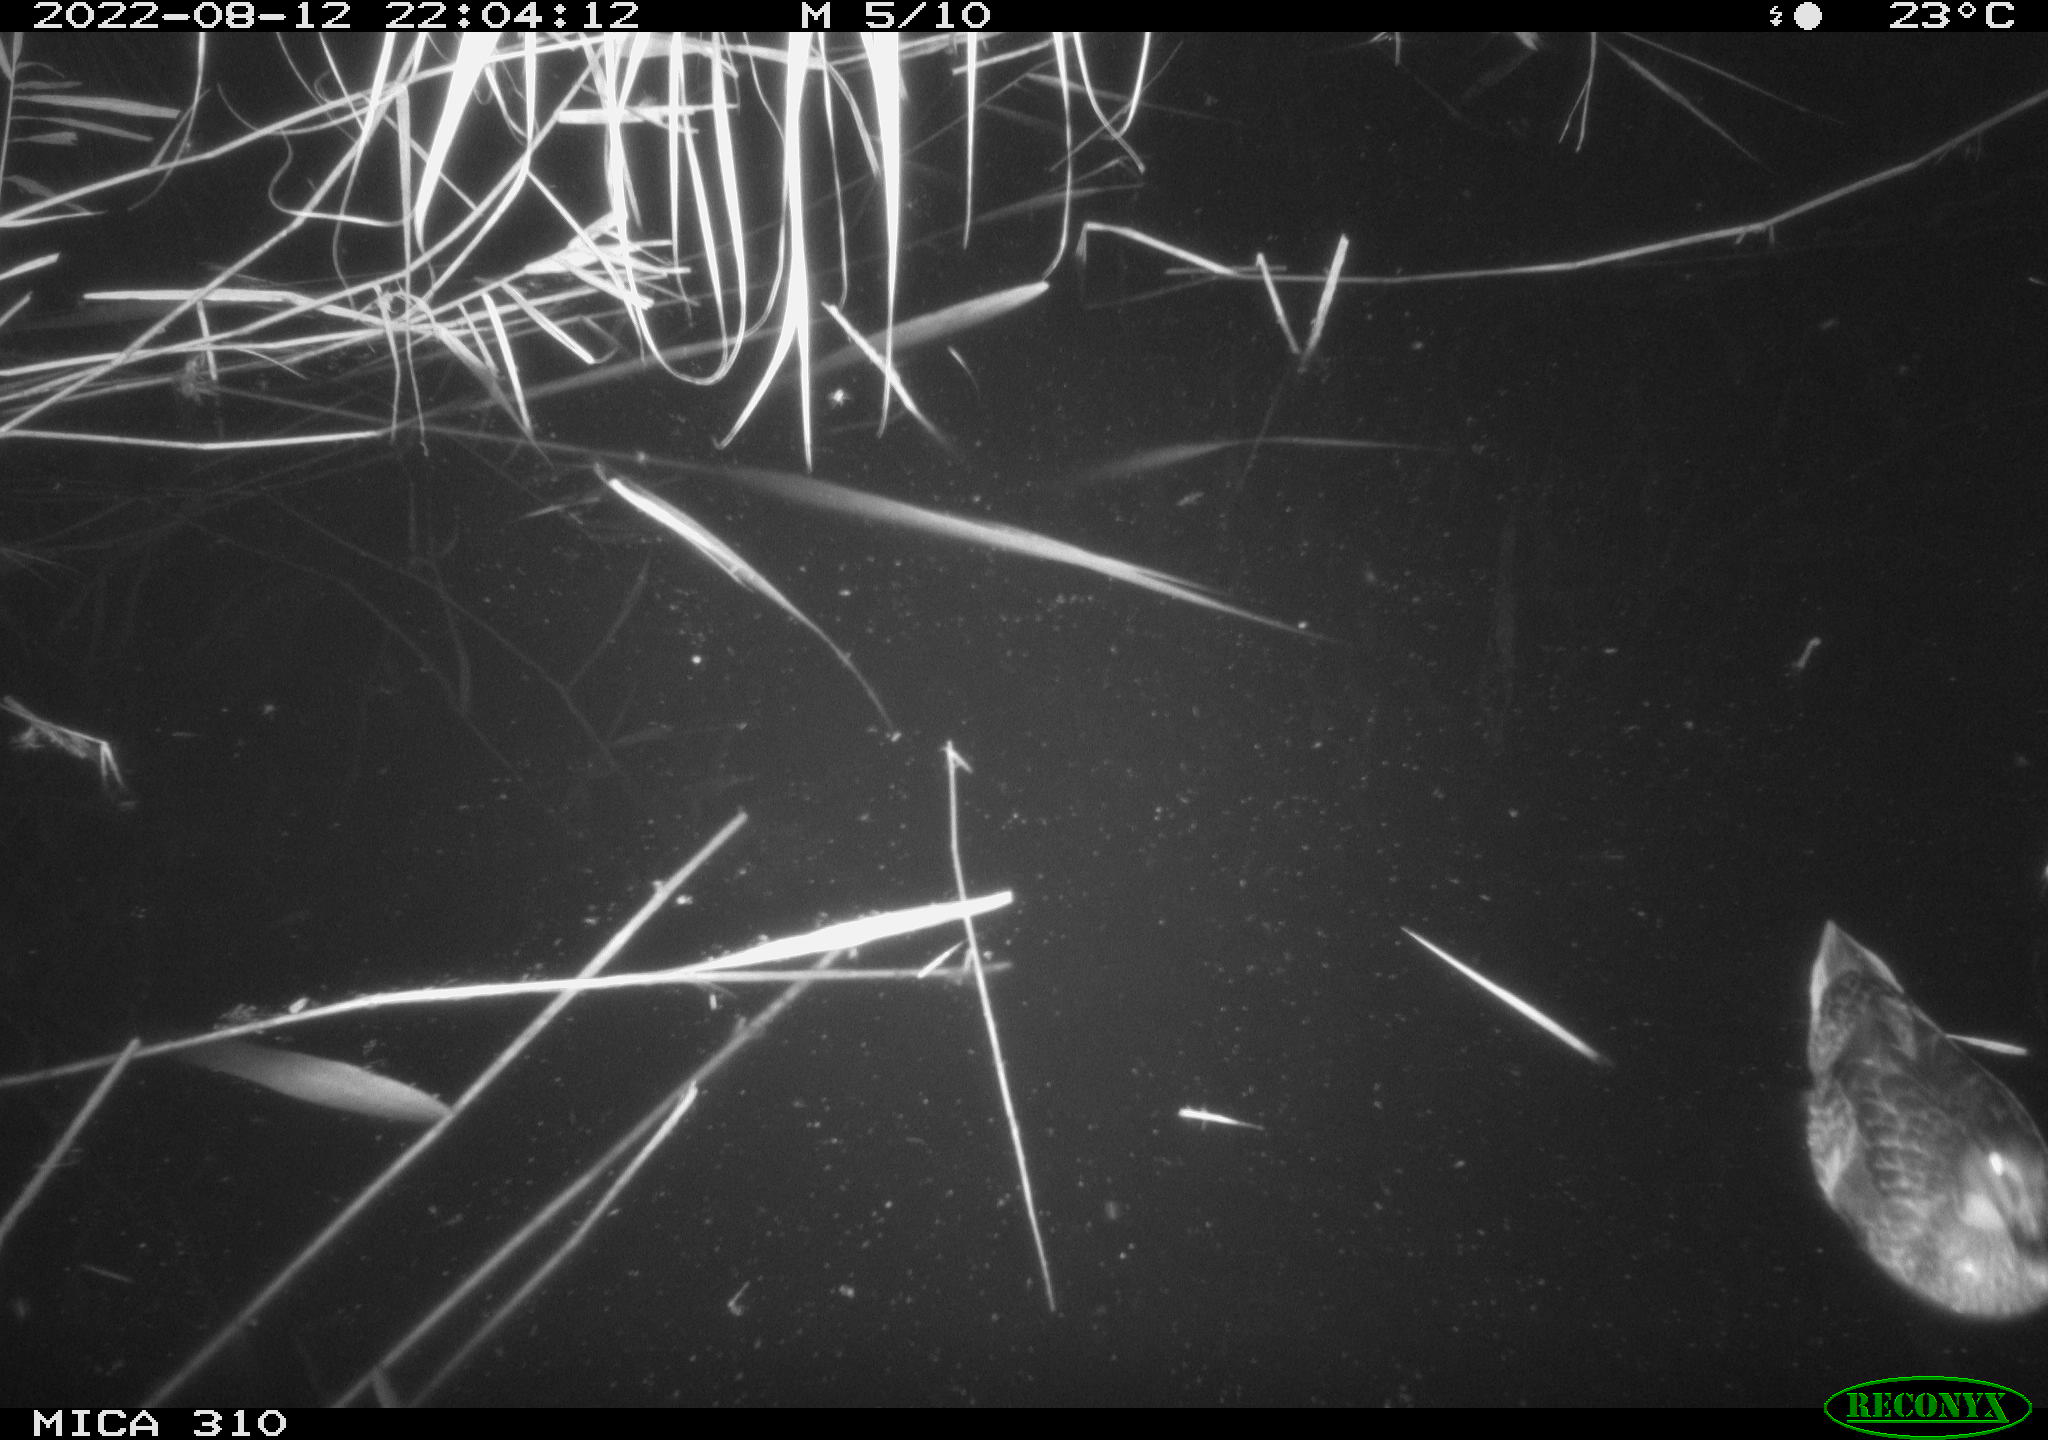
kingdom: Animalia
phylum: Chordata
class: Aves
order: Anseriformes
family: Anatidae
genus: Anas
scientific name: Anas platyrhynchos
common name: Mallard
